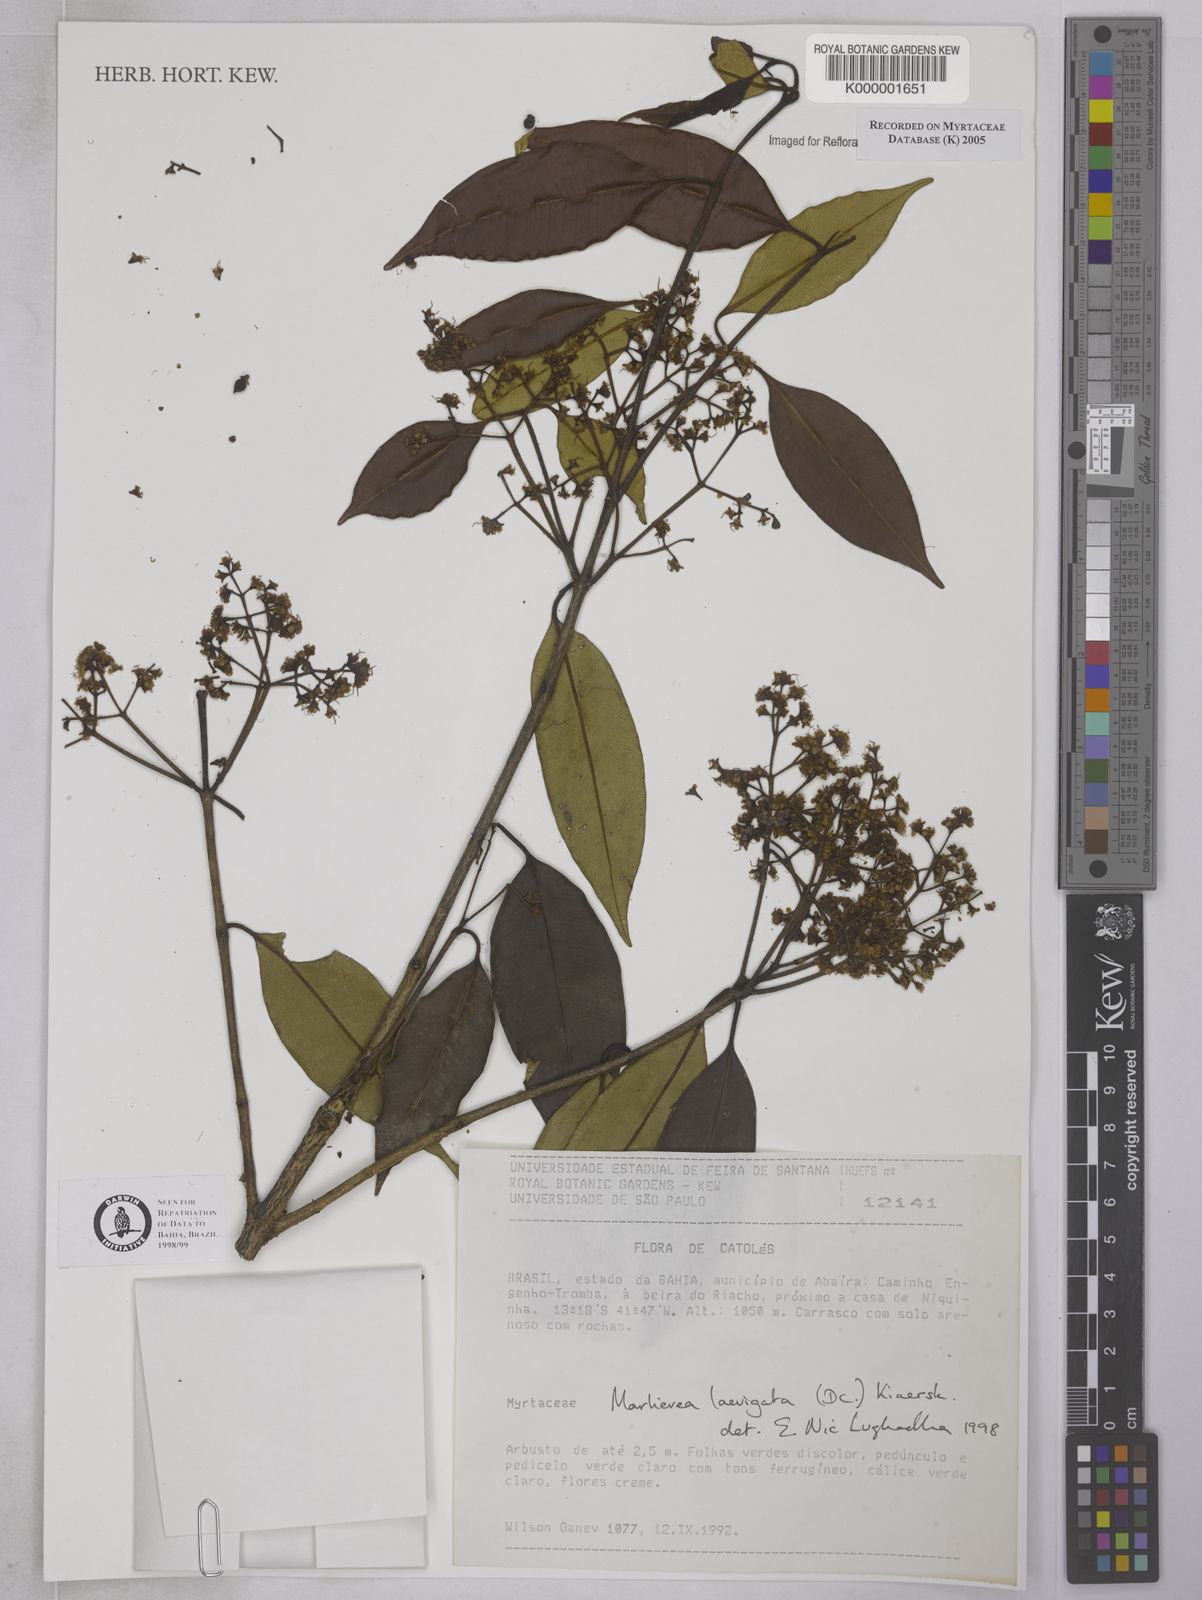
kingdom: Plantae
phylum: Tracheophyta
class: Liliopsida
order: Poales
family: Cyperaceae
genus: Lagenocarpus
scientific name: Lagenocarpus rigidus
